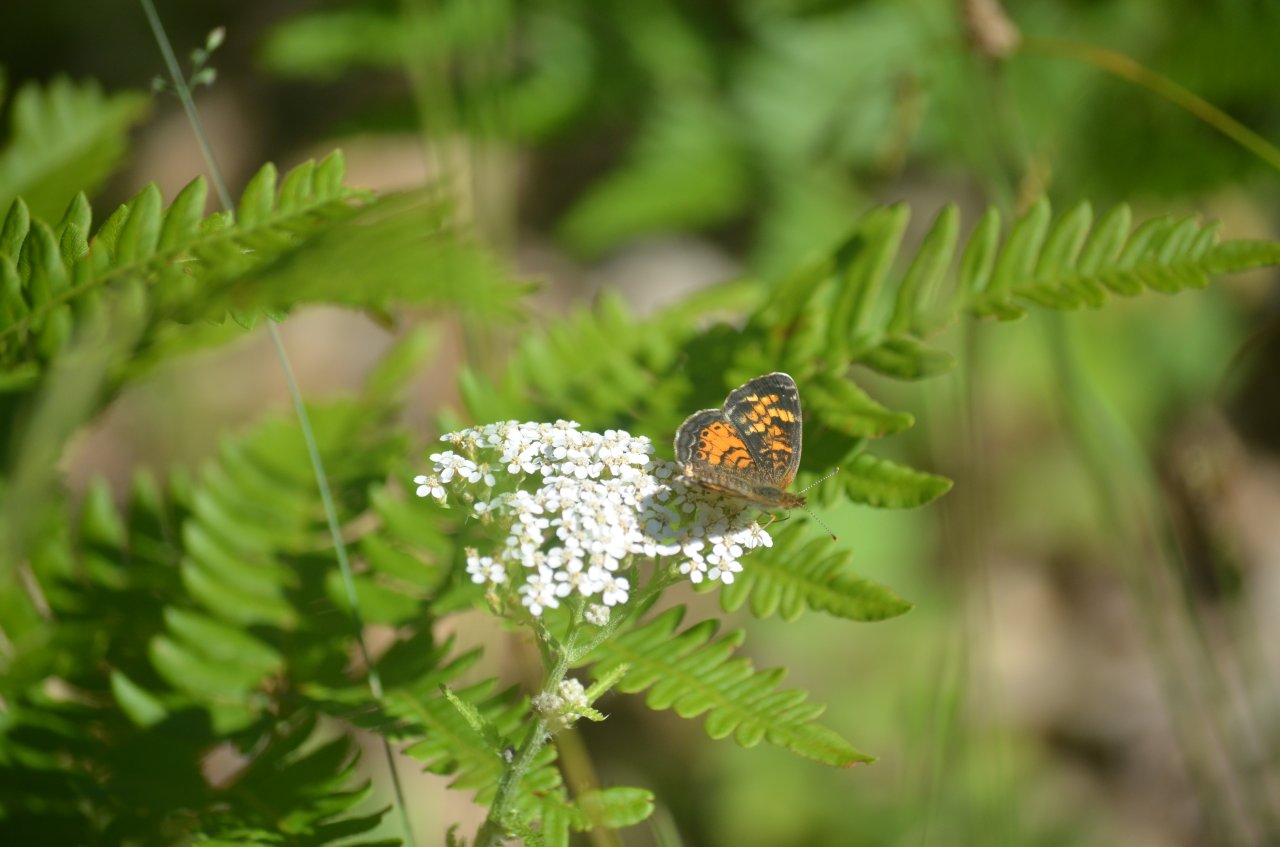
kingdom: Animalia
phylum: Arthropoda
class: Insecta
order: Lepidoptera
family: Nymphalidae
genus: Phyciodes
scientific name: Phyciodes tharos
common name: Northern Crescent
